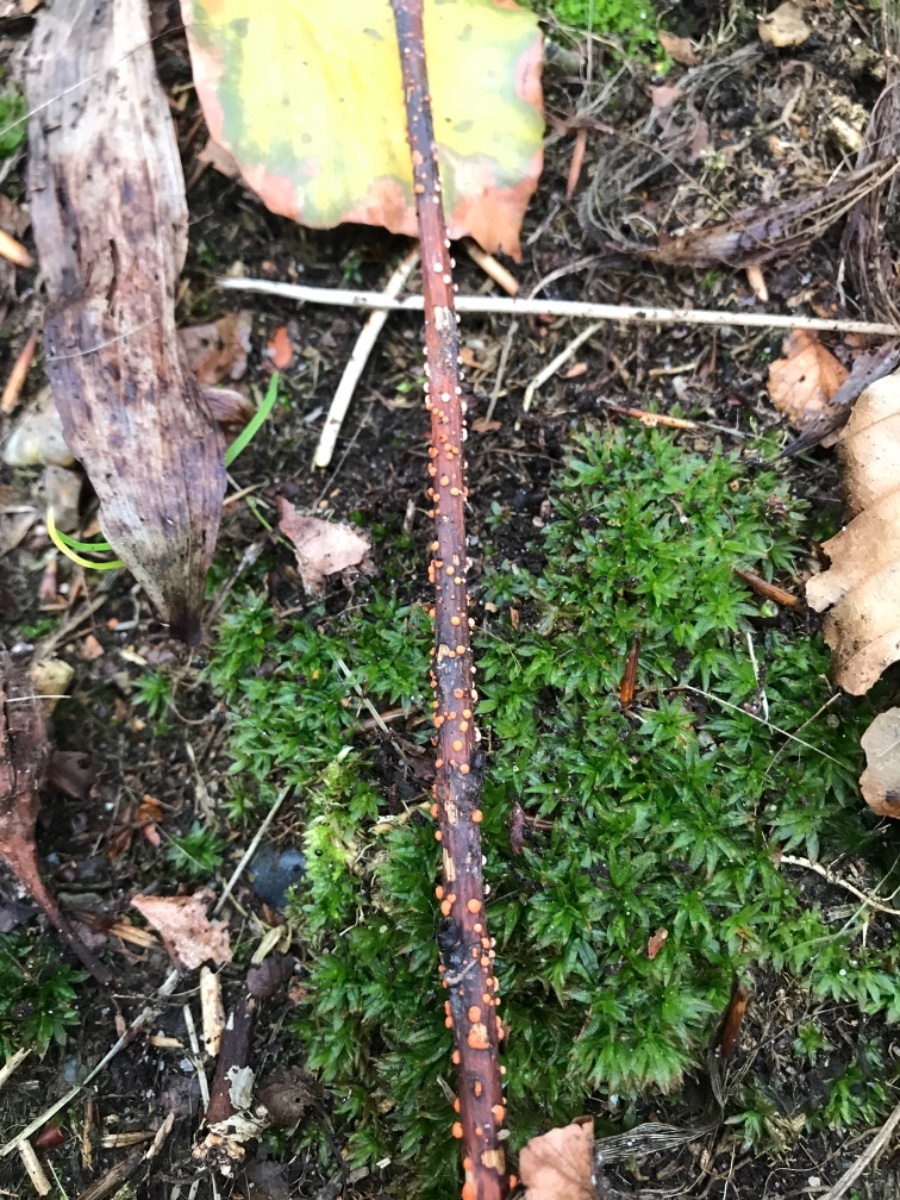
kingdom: Fungi
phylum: Ascomycota
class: Sordariomycetes
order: Hypocreales
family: Nectriaceae
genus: Nectria
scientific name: Nectria cinnabarina
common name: almindelig cinnobersvamp
